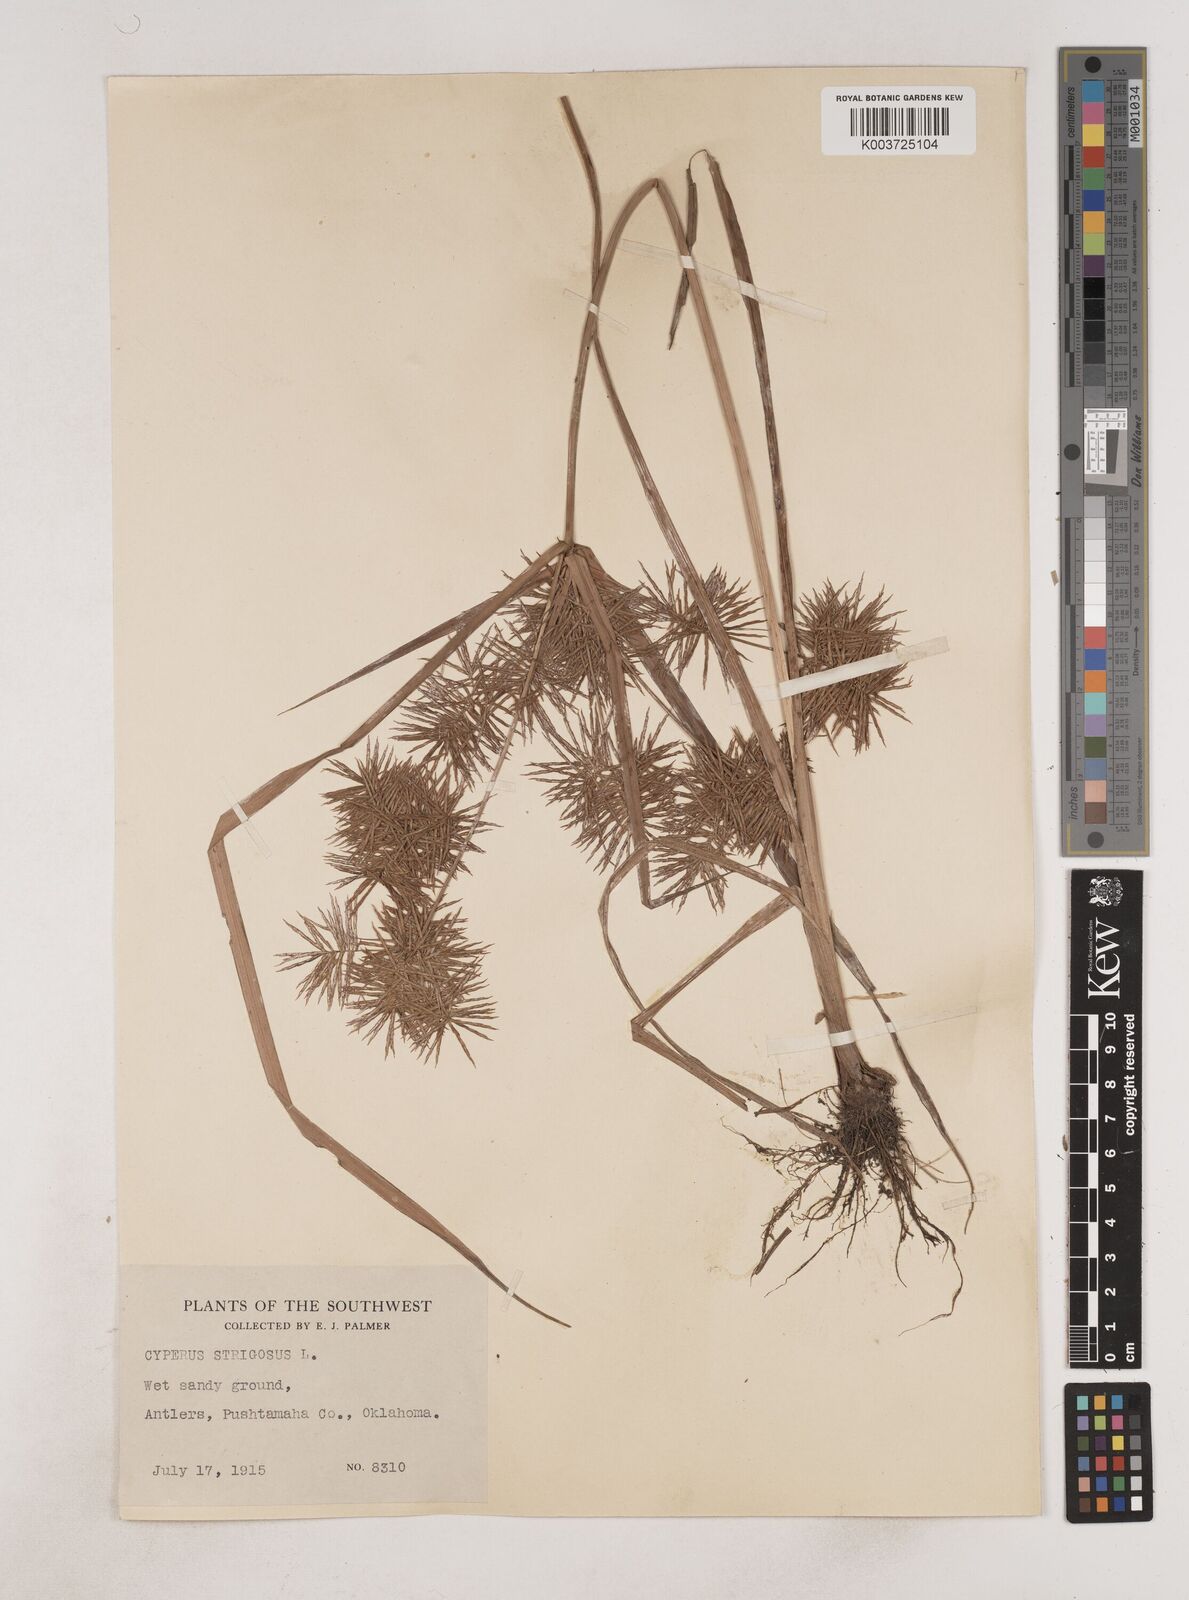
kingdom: Plantae
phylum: Tracheophyta
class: Liliopsida
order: Poales
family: Cyperaceae
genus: Cyperus
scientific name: Cyperus strigosus
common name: False nutsedge
